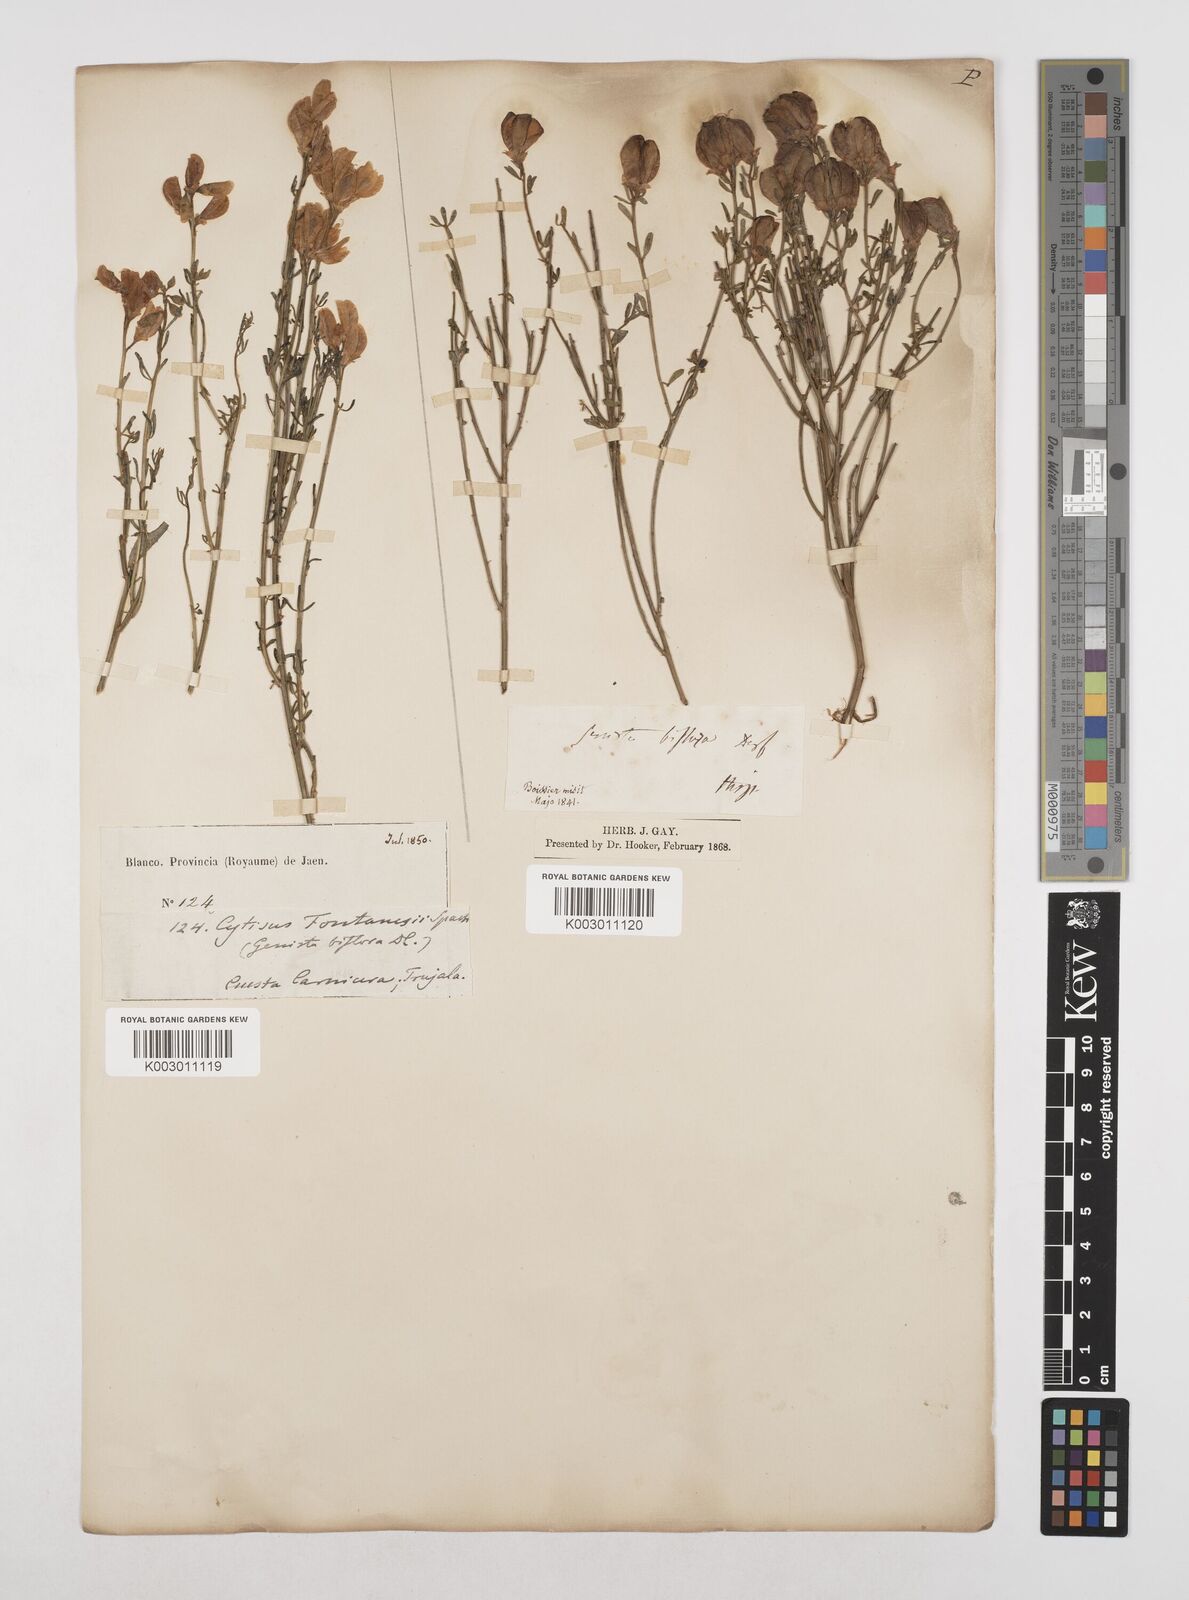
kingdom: Plantae
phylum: Tracheophyta
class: Magnoliopsida
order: Fabales
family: Fabaceae
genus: Cytisus
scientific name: Cytisus fontanesii
